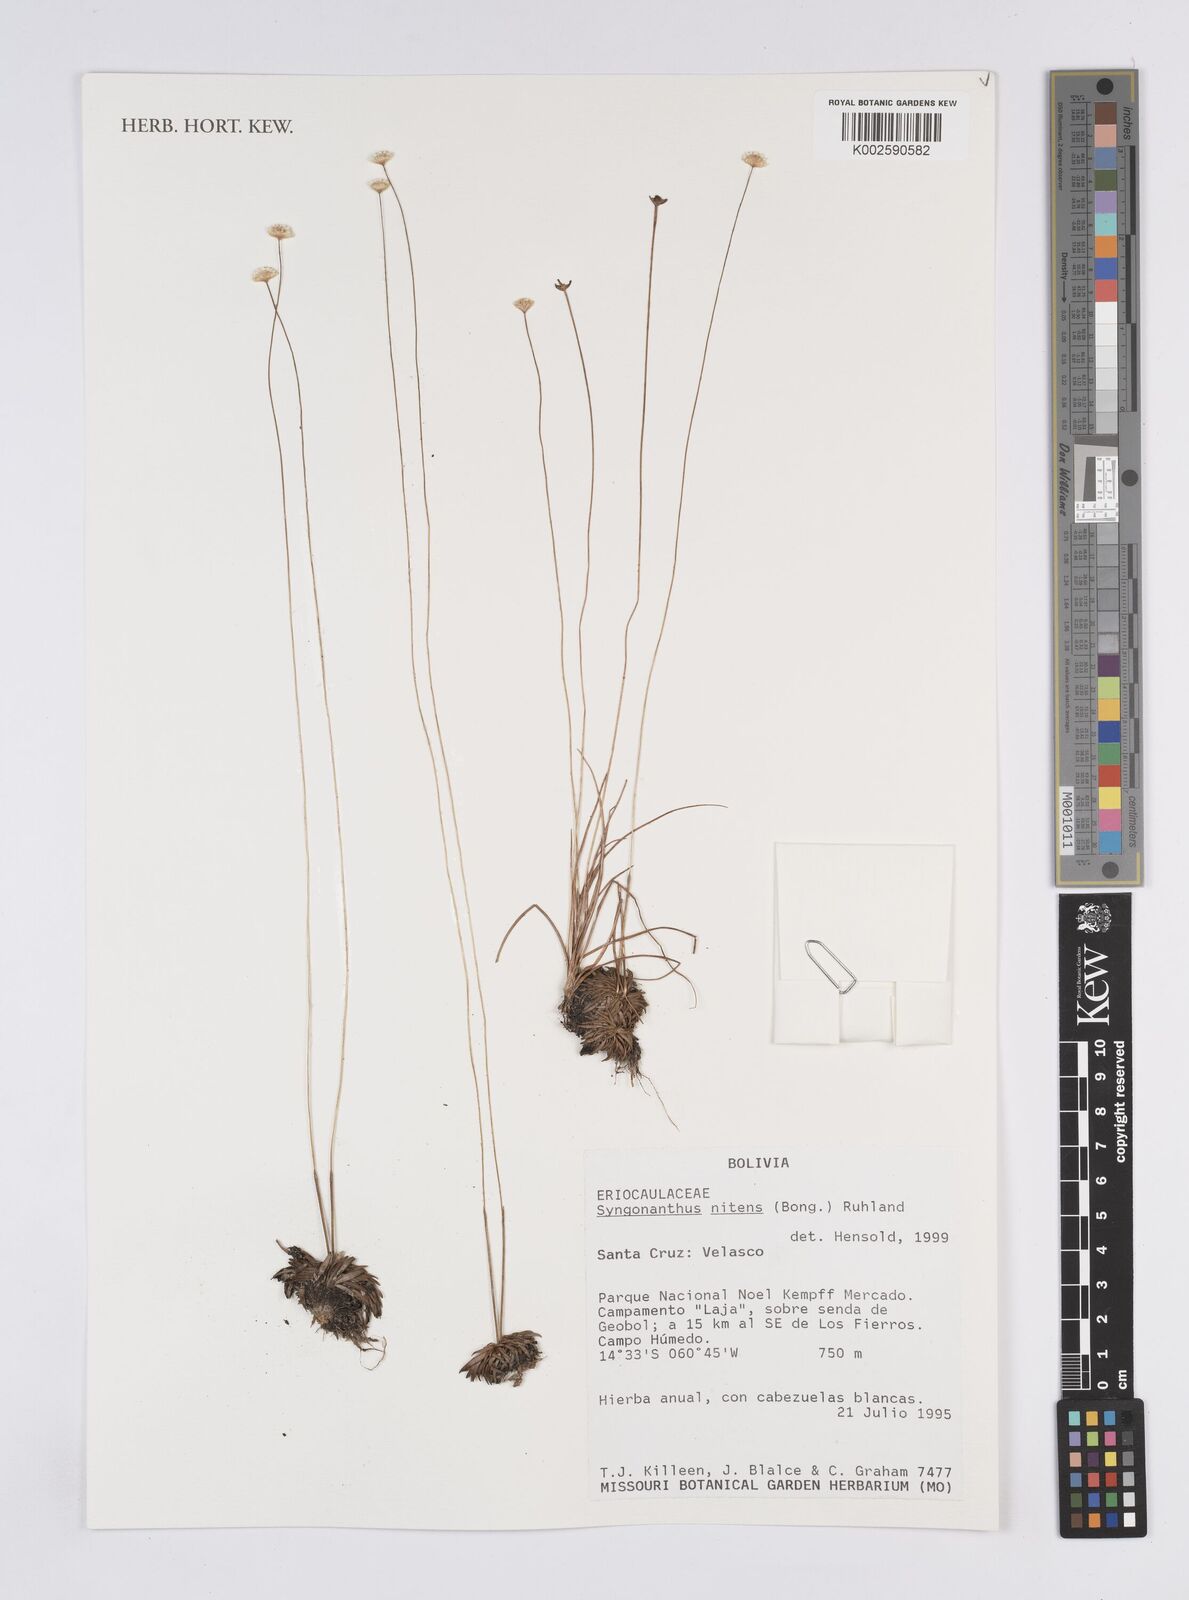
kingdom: Plantae
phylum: Tracheophyta
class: Liliopsida
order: Poales
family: Eriocaulaceae
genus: Syngonanthus
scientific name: Syngonanthus nitens
